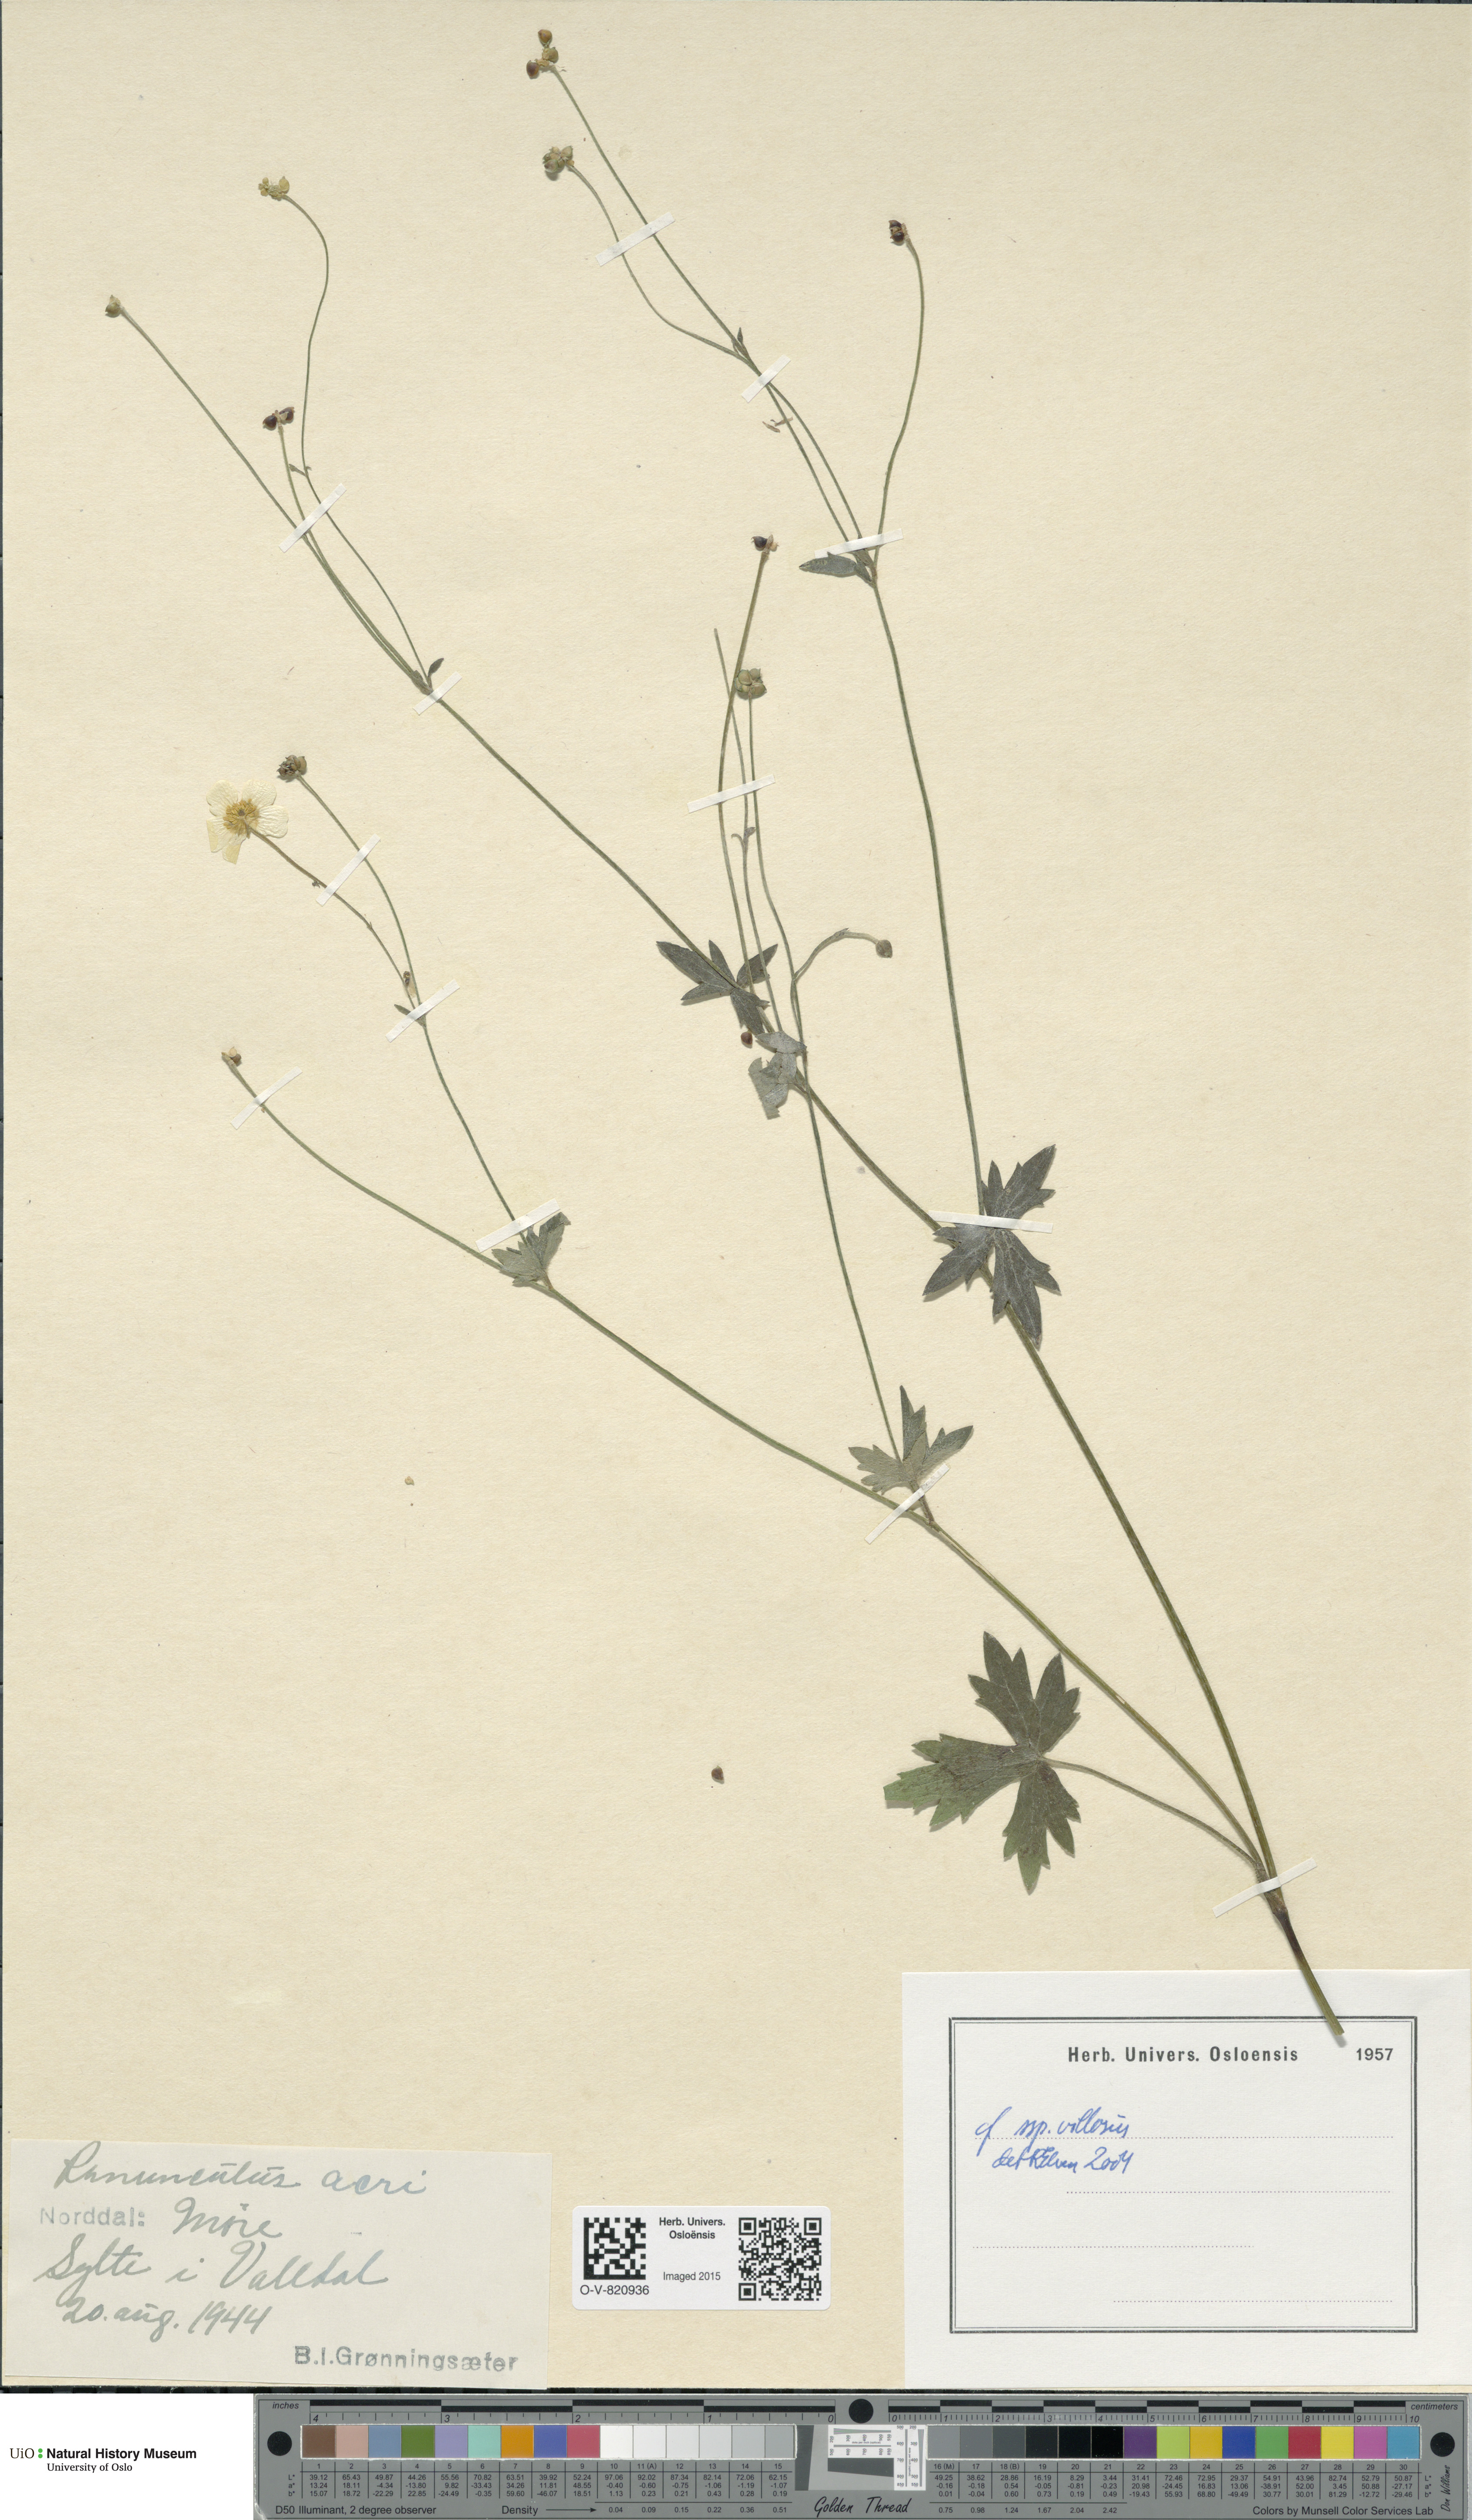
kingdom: Plantae
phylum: Tracheophyta
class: Magnoliopsida
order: Ranunculales
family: Ranunculaceae
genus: Ranunculus
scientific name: Ranunculus propinquus
